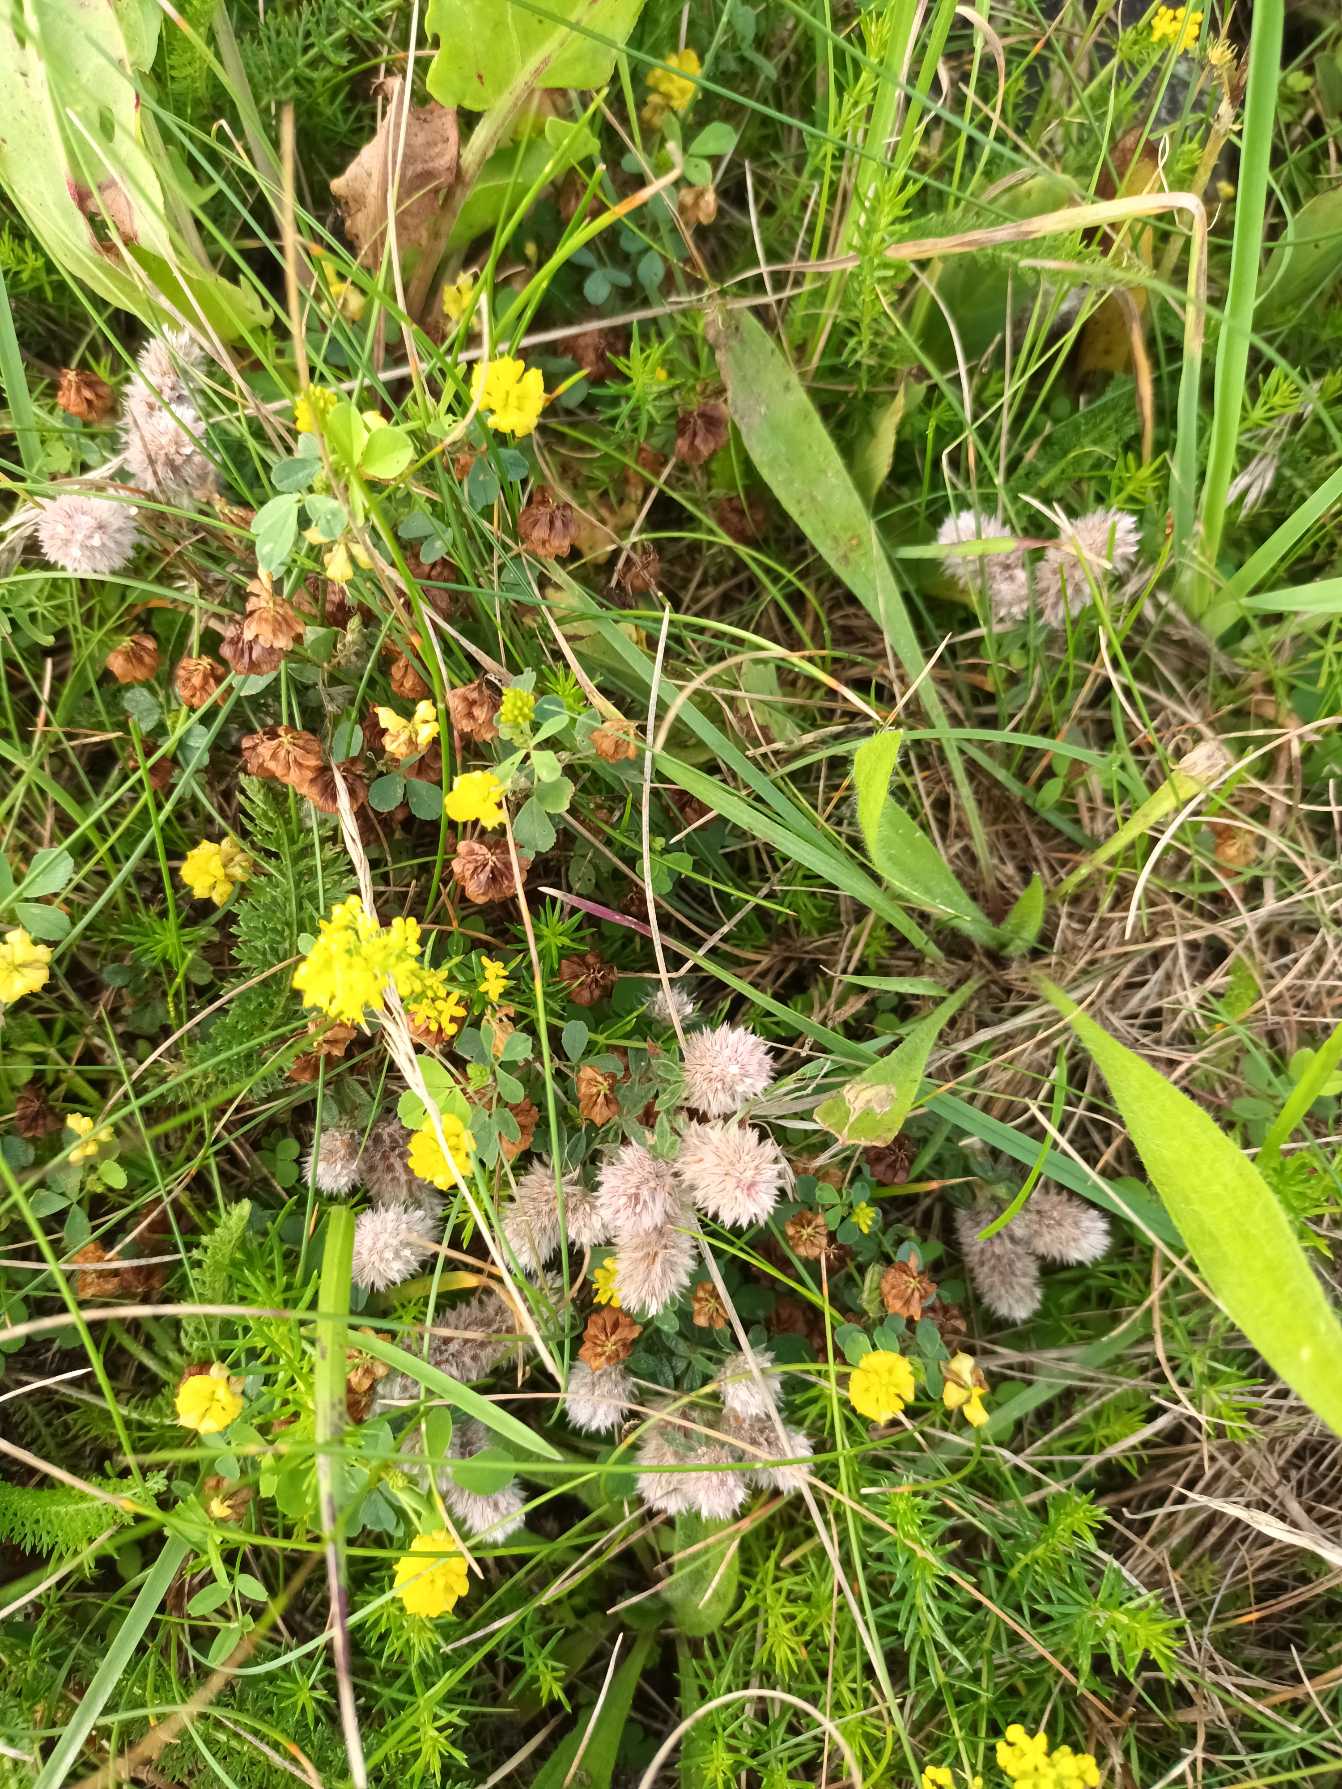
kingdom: Plantae
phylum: Tracheophyta
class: Magnoliopsida
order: Fabales
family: Fabaceae
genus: Trifolium
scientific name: Trifolium arvense
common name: Hare-kløver
